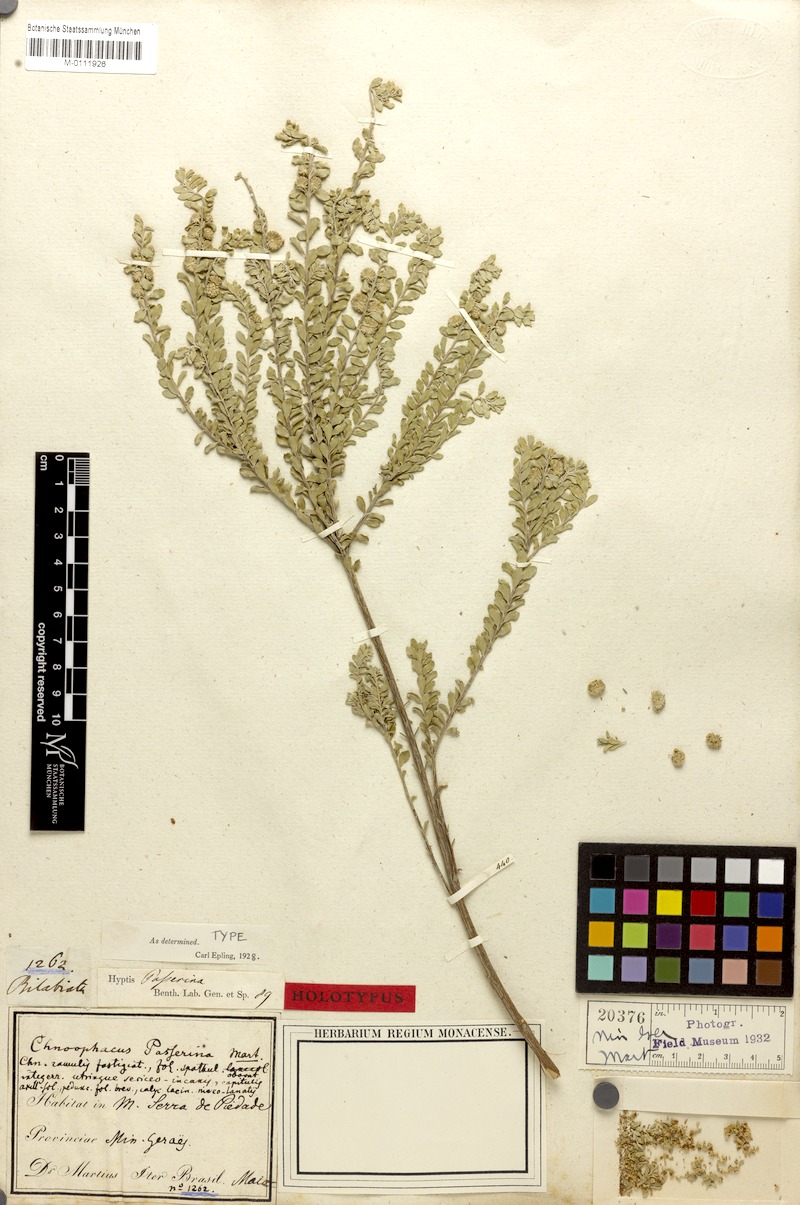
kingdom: Plantae
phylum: Tracheophyta
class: Magnoliopsida
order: Lamiales
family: Lamiaceae
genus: Hyptis
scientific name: Hyptis passerina
